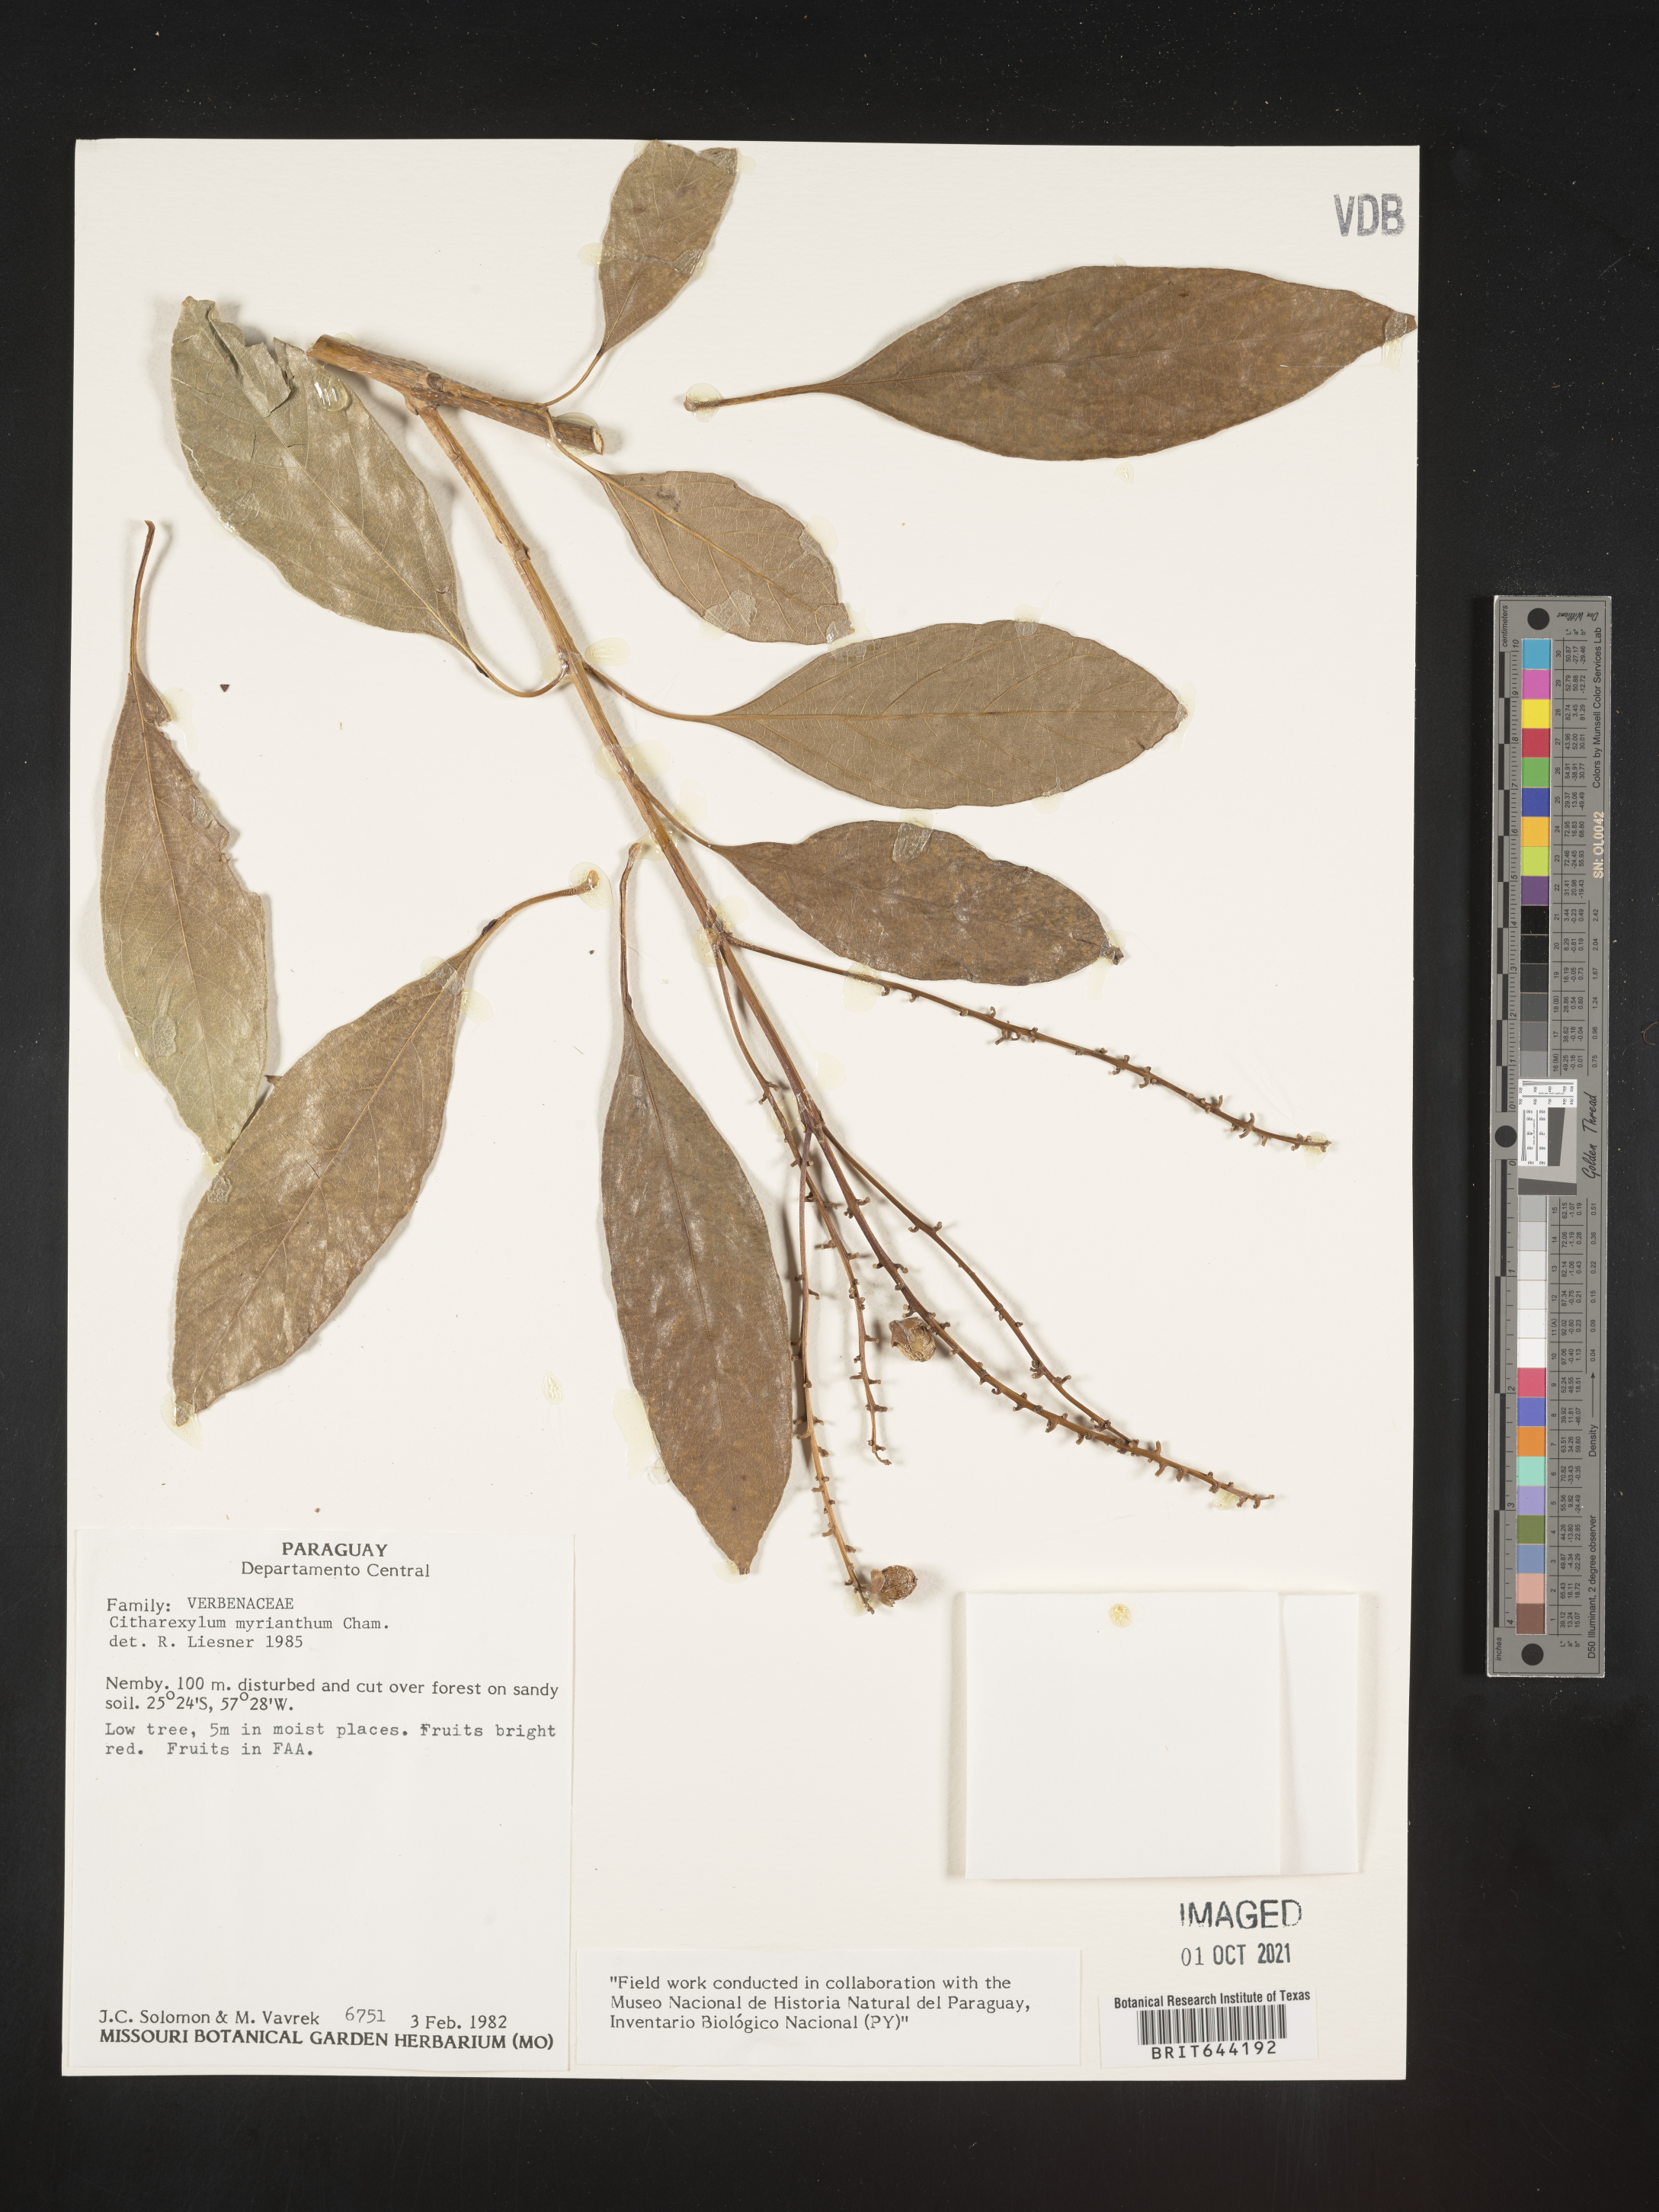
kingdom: Plantae
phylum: Tracheophyta
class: Magnoliopsida
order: Lamiales
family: Verbenaceae
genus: Citharexylum
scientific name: Citharexylum
